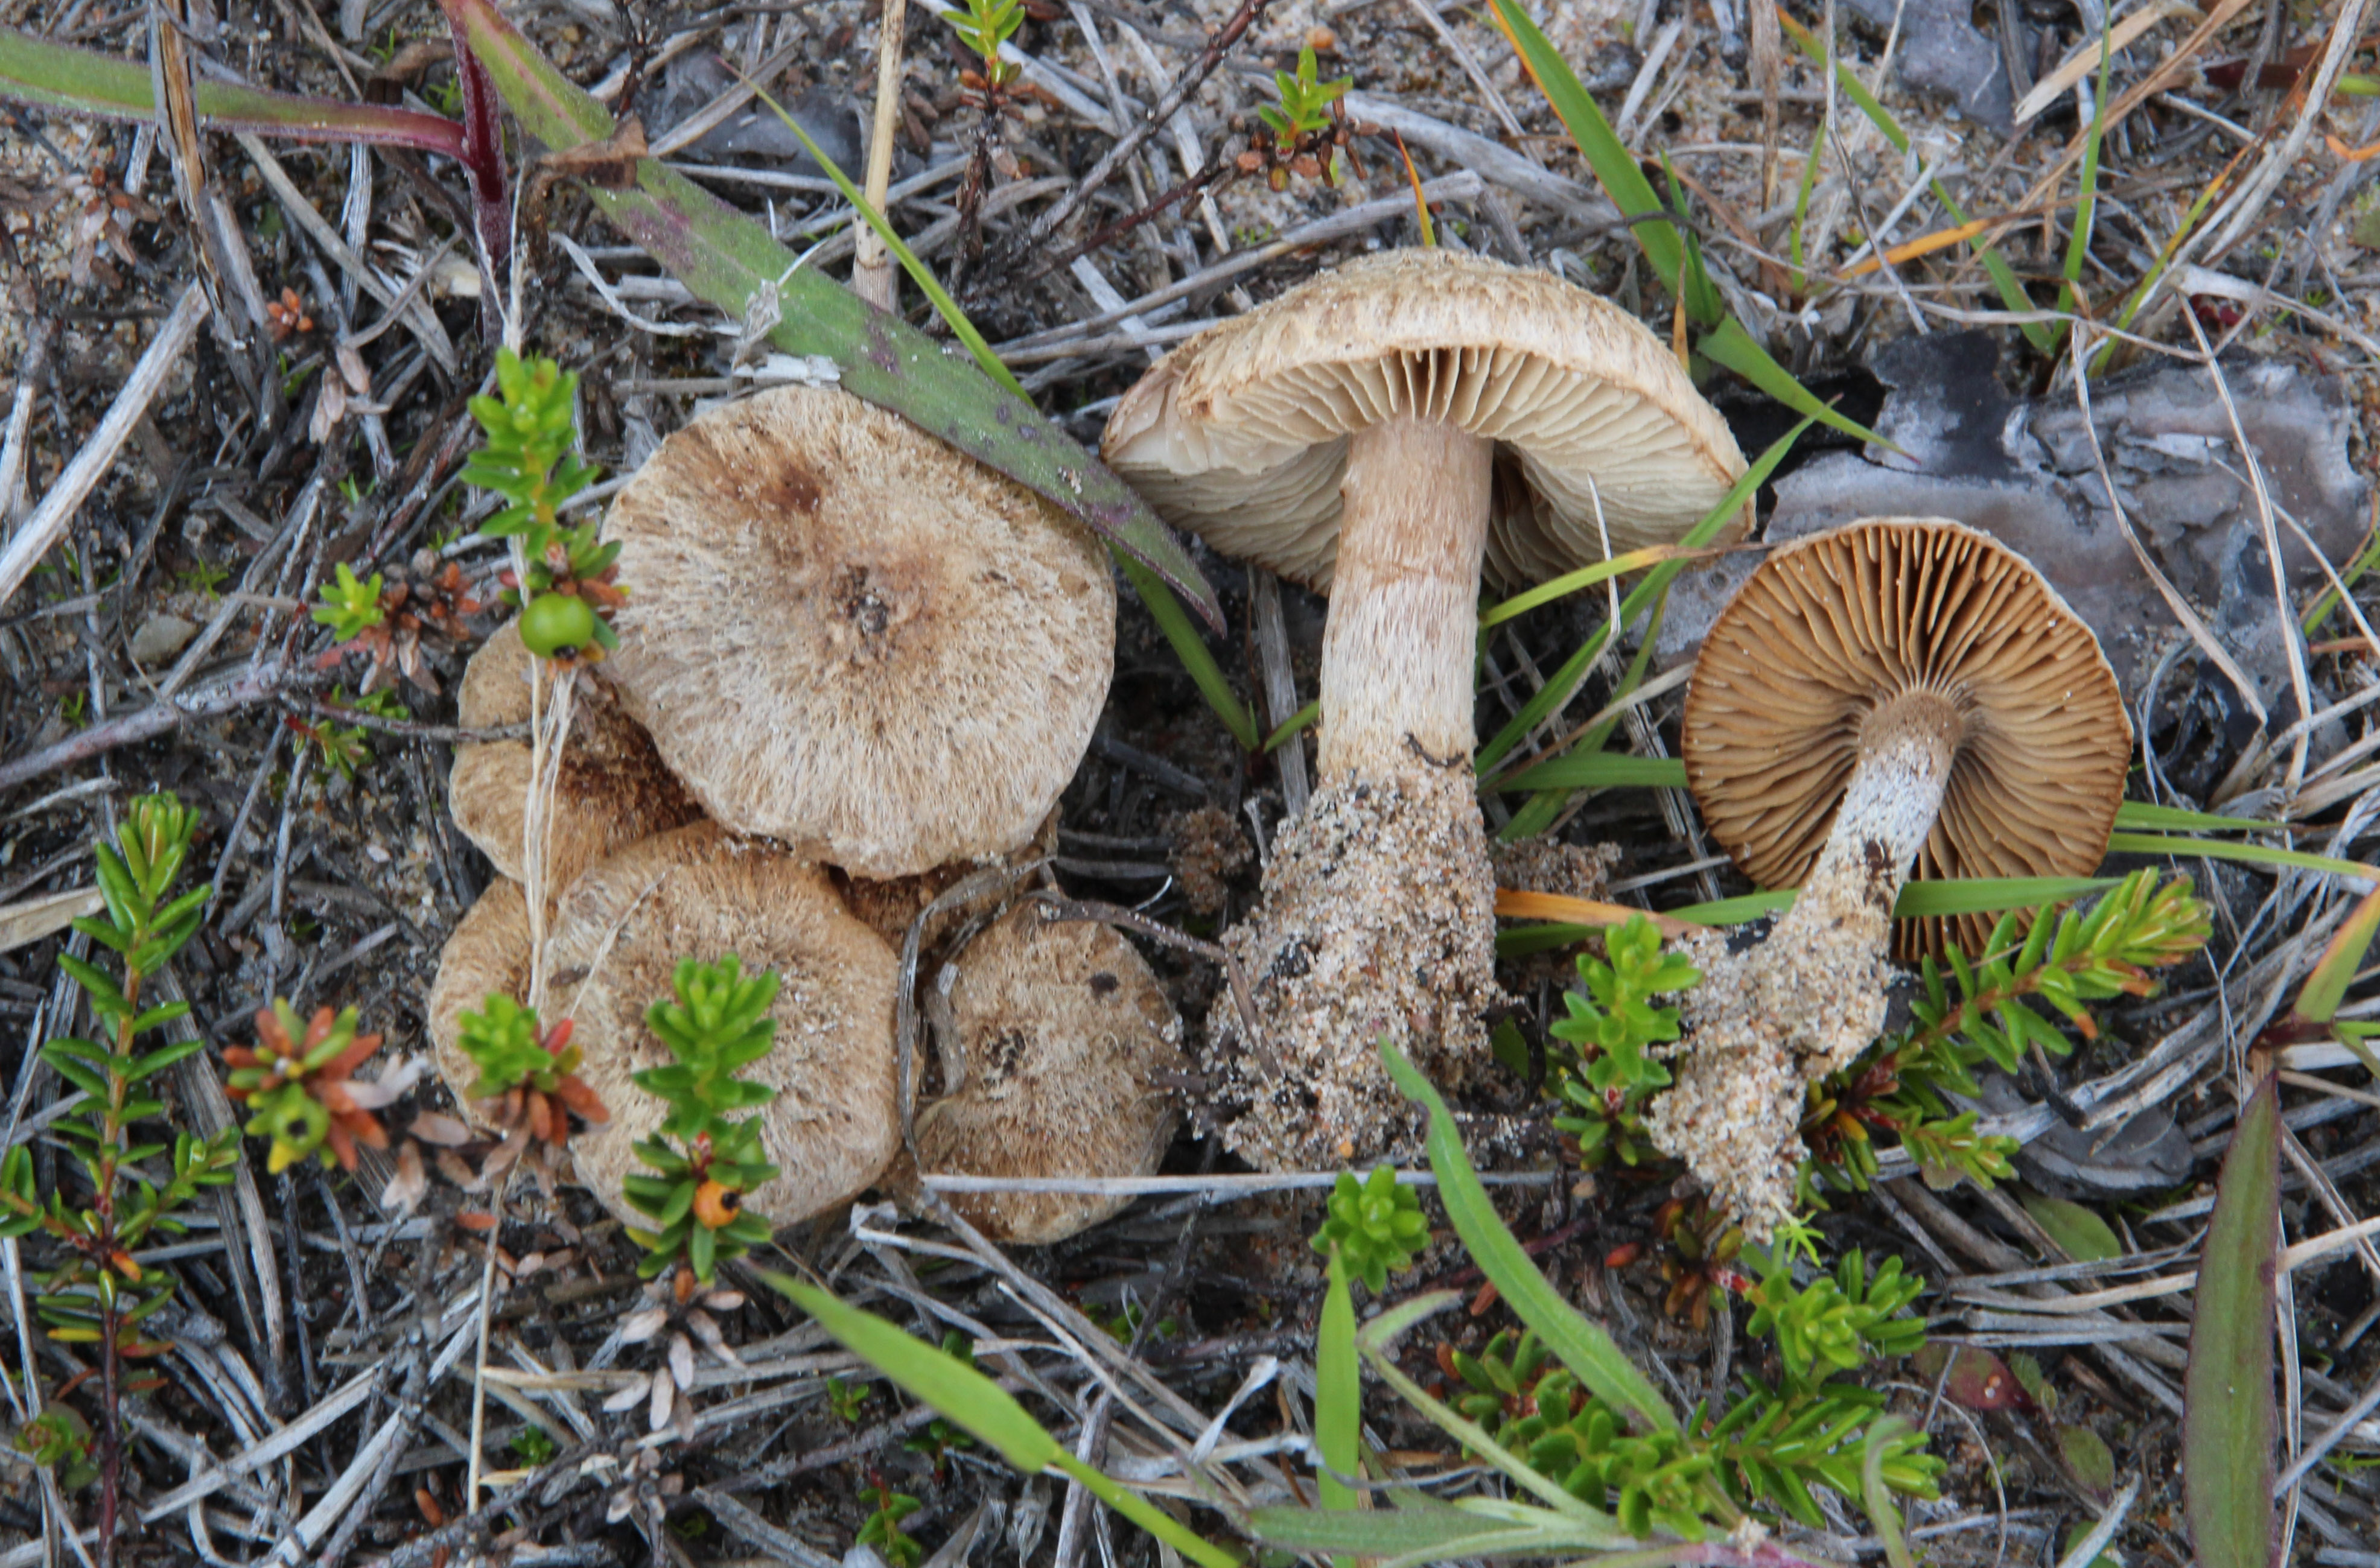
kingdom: Fungi
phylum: Basidiomycota
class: Agaricomycetes
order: Agaricales
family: Inocybaceae
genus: Inocybe
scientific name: Inocybe impexa
